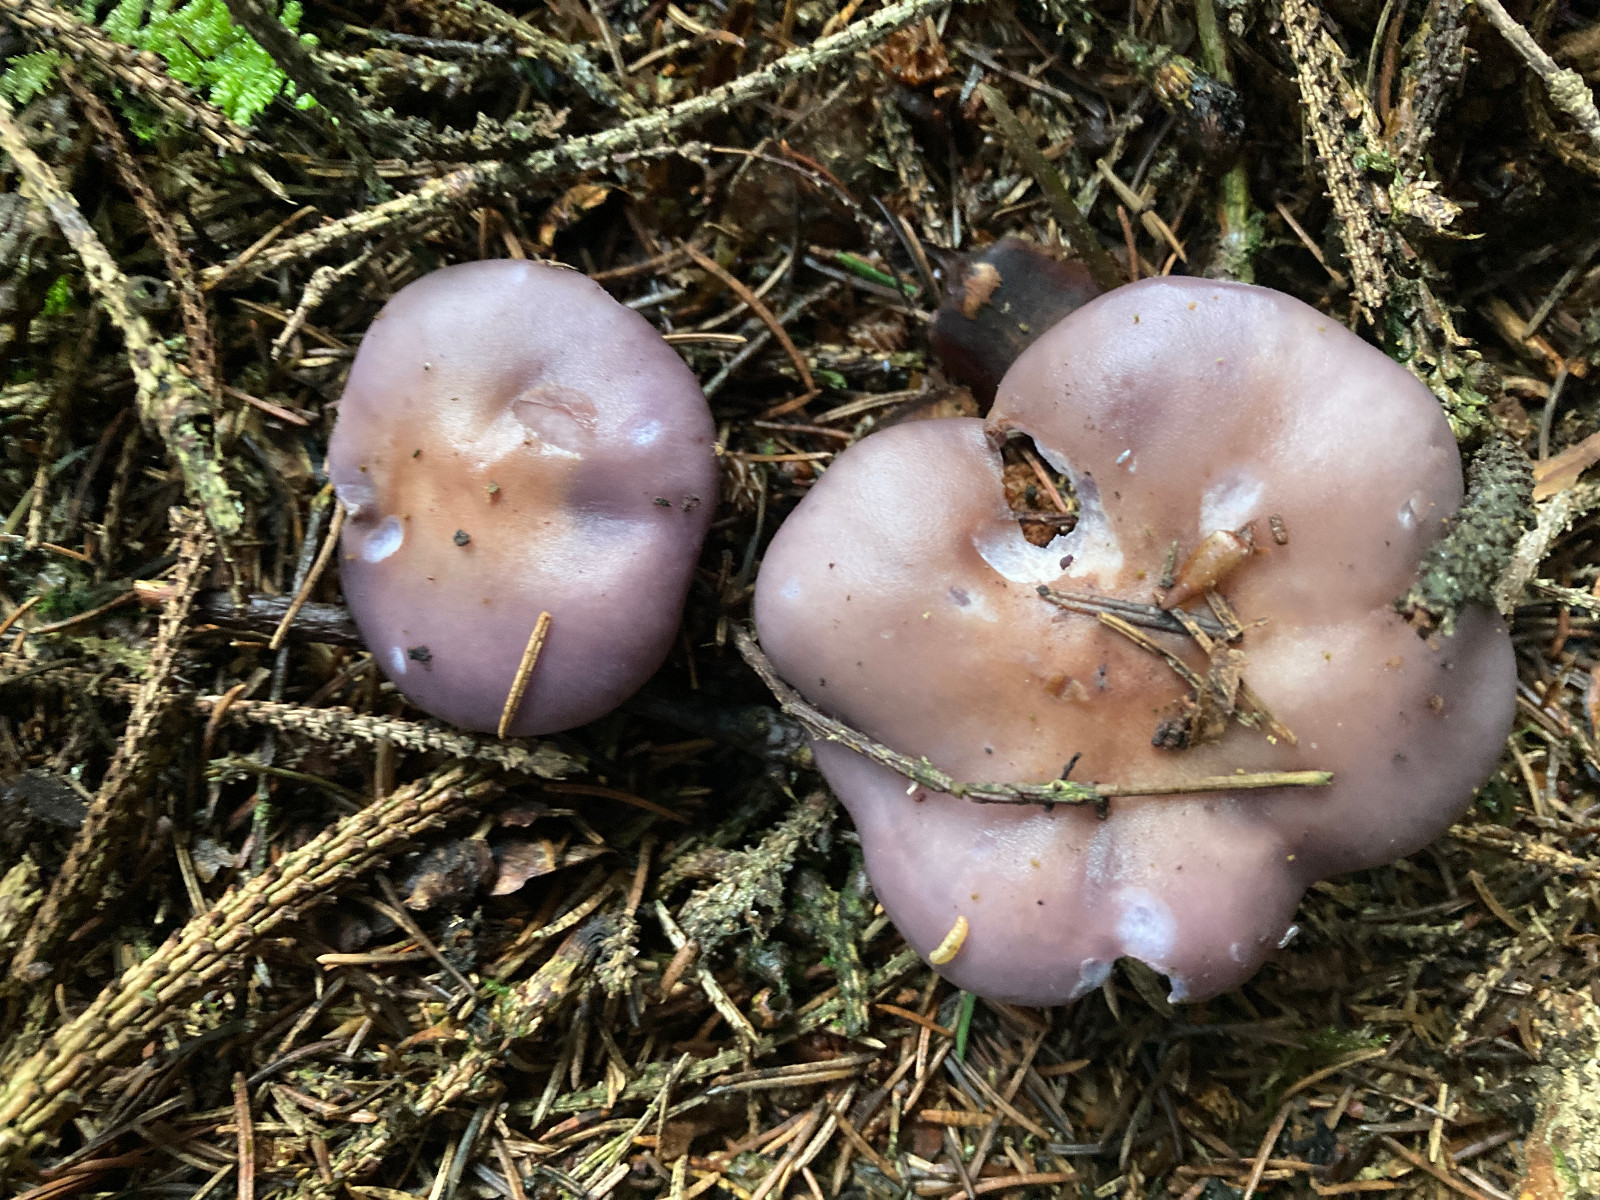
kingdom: Fungi
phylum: Basidiomycota
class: Agaricomycetes
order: Agaricales
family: Tricholomataceae
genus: Lepista
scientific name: Lepista nuda
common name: violet hekseringshat
